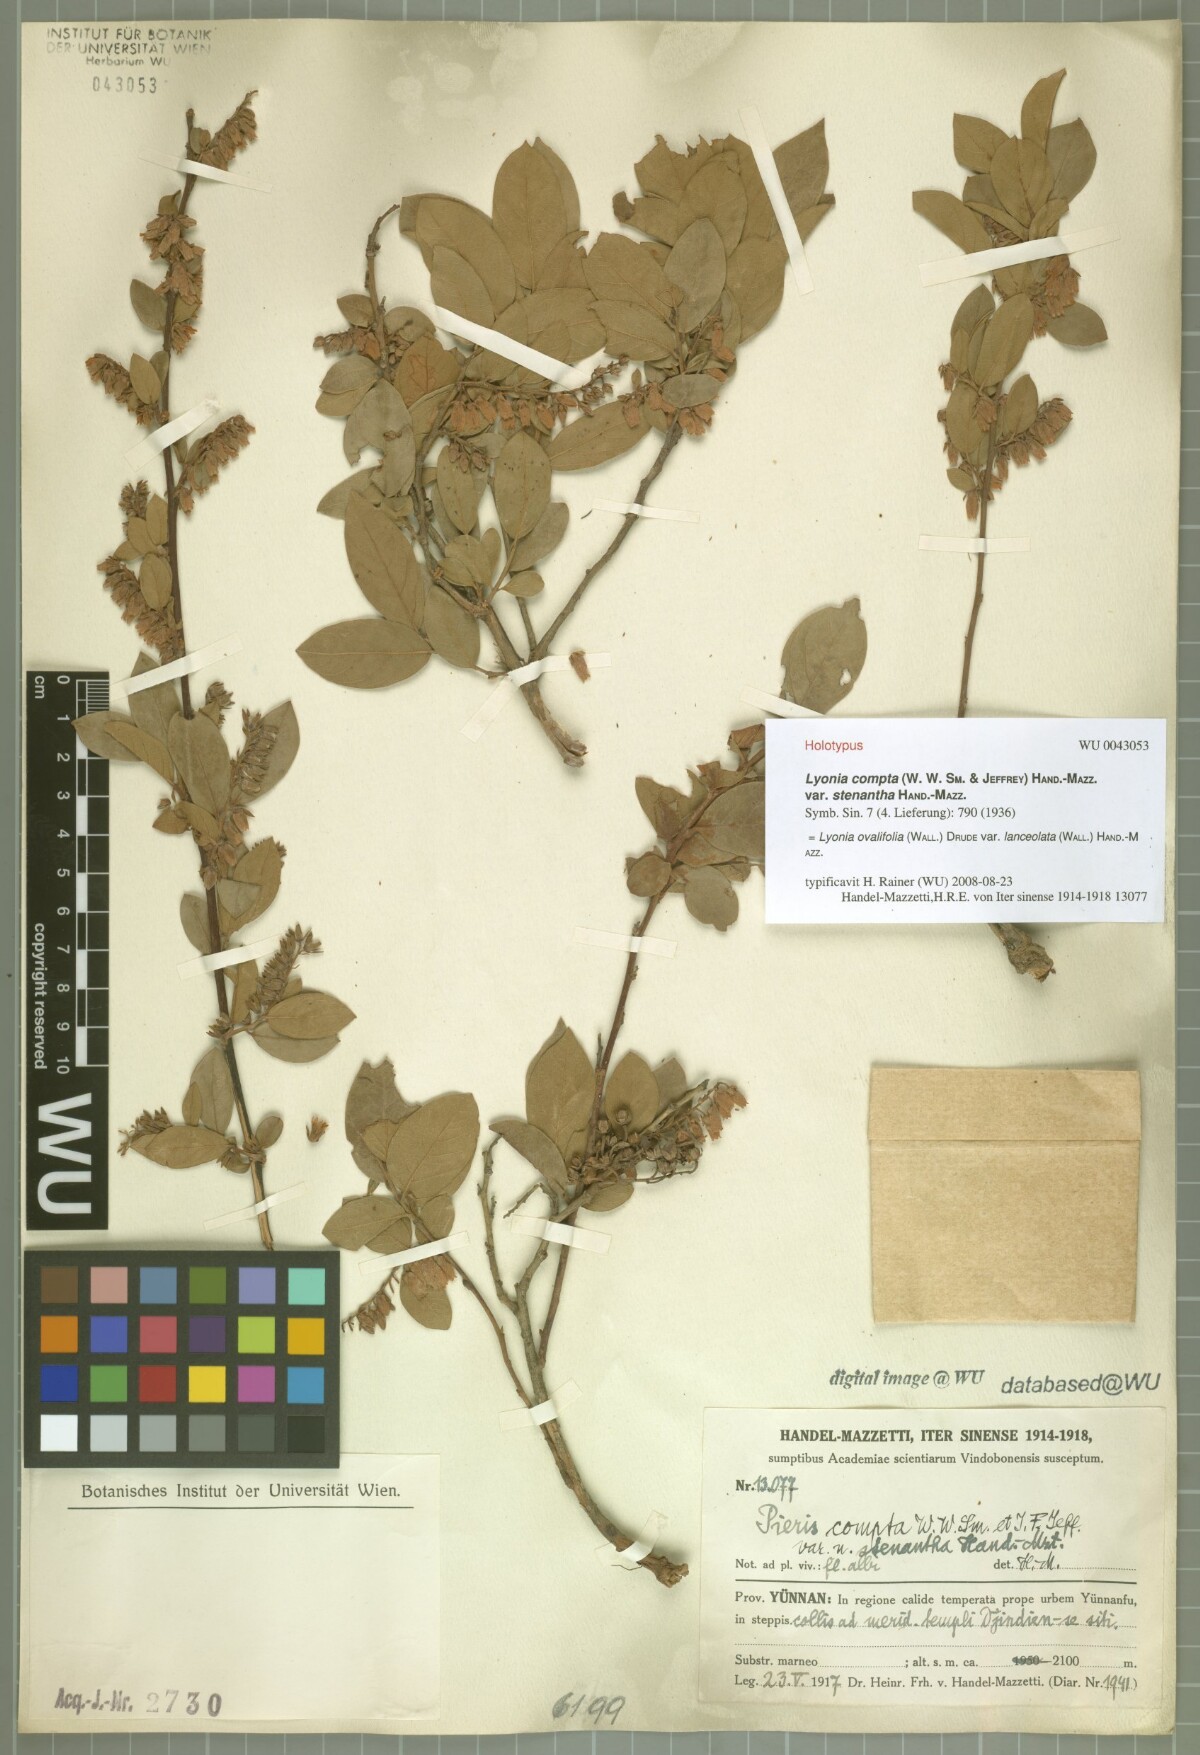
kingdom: Plantae
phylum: Tracheophyta
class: Magnoliopsida
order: Ericales
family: Ericaceae
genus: Lyonia
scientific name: Lyonia ovalifolia
